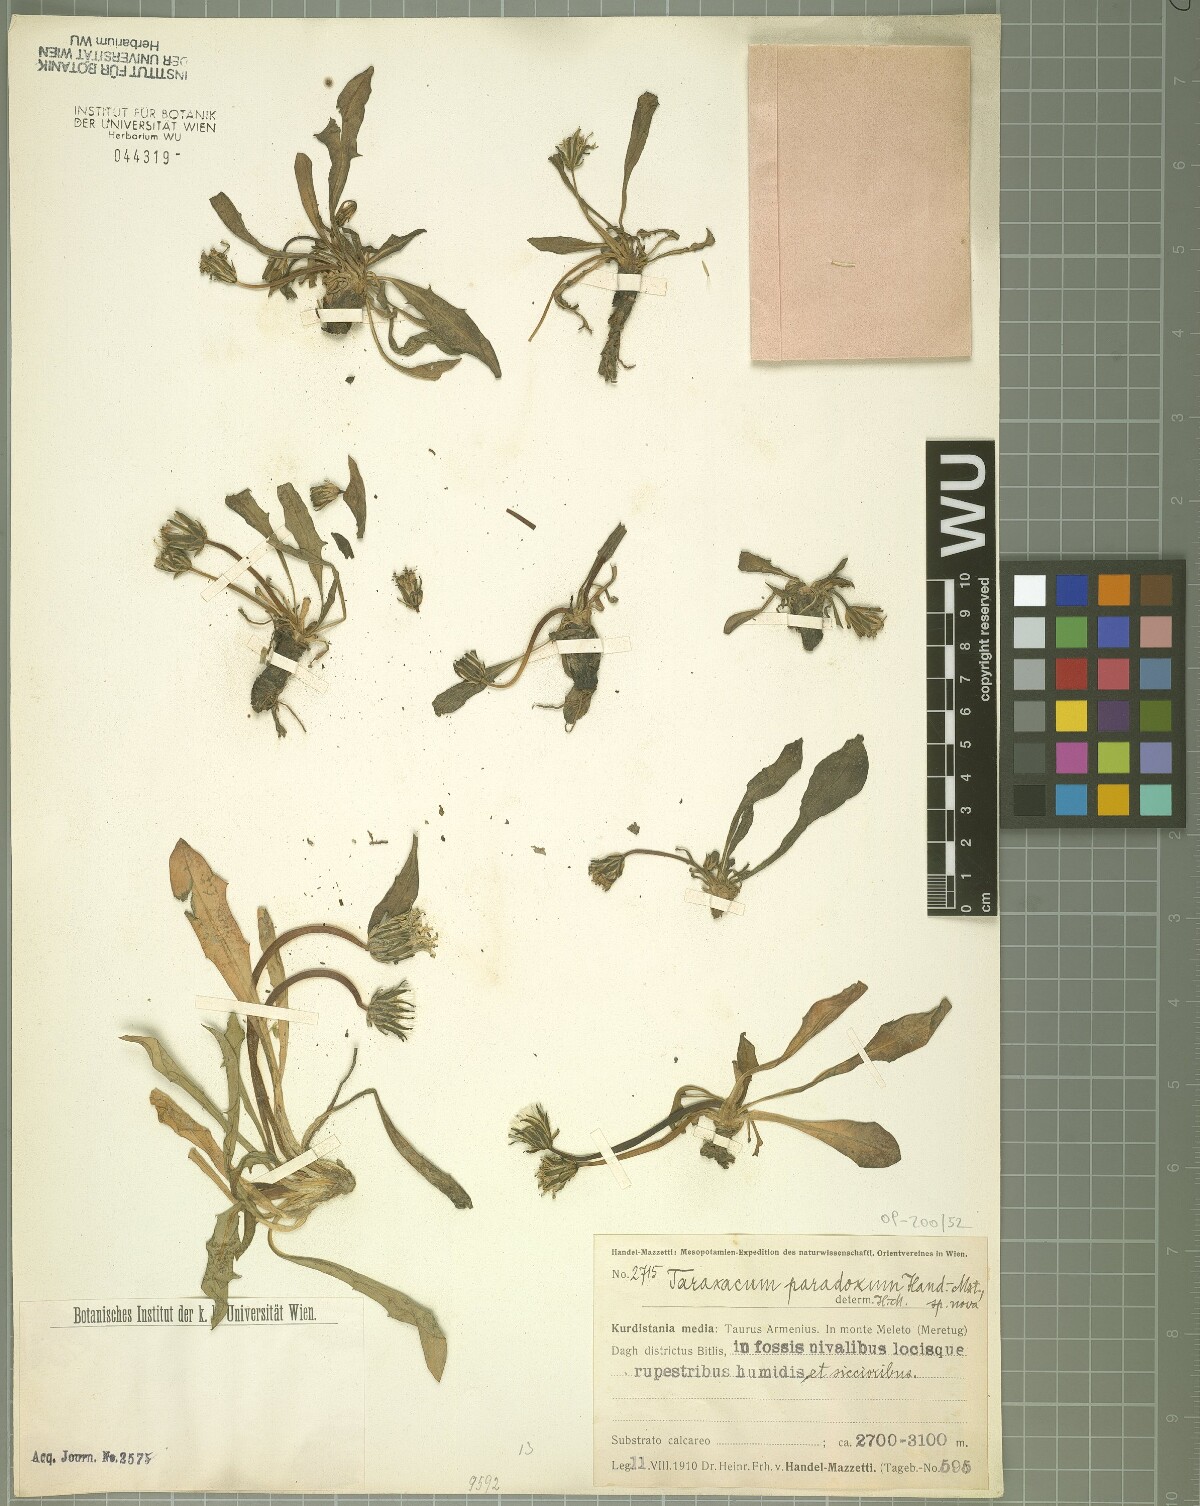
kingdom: Plantae
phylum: Tracheophyta
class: Magnoliopsida
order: Asterales
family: Asteraceae
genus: Taraxacum
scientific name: Taraxacum stevenii
